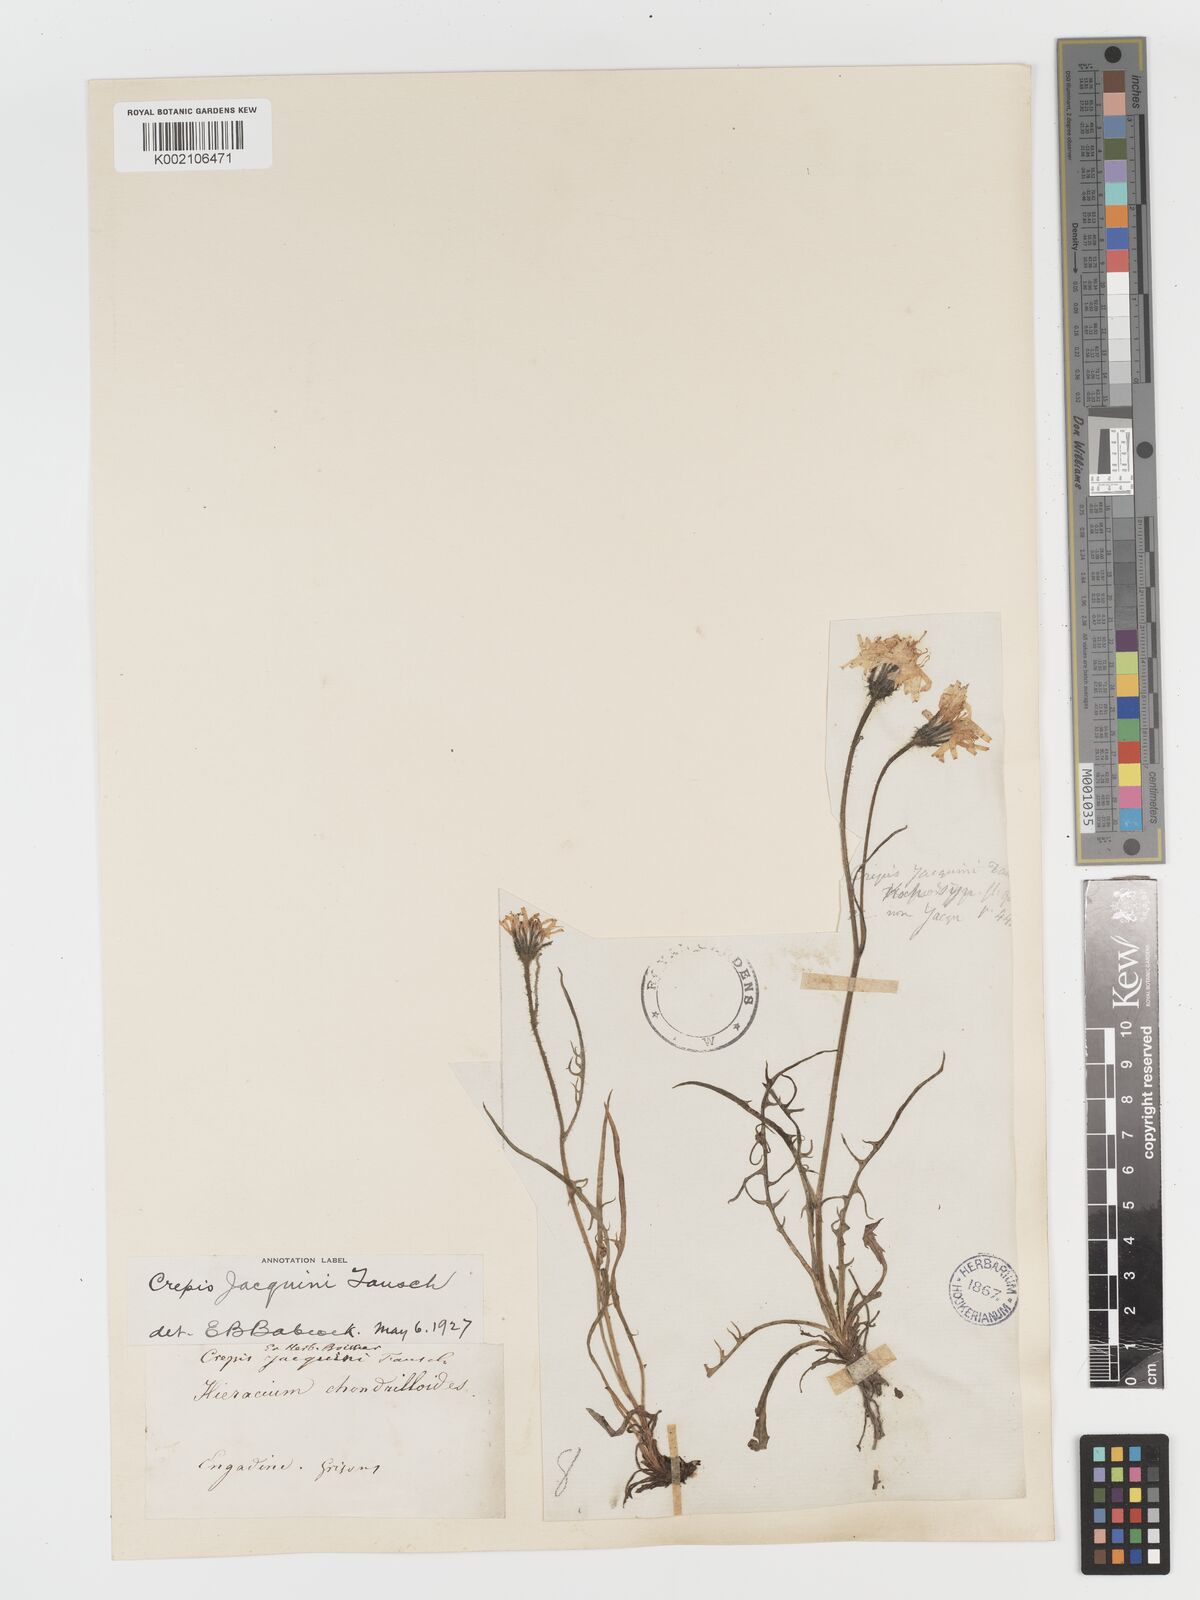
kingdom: Plantae
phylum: Tracheophyta
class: Magnoliopsida
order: Asterales
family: Asteraceae
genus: Crepis
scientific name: Crepis jacquinii
